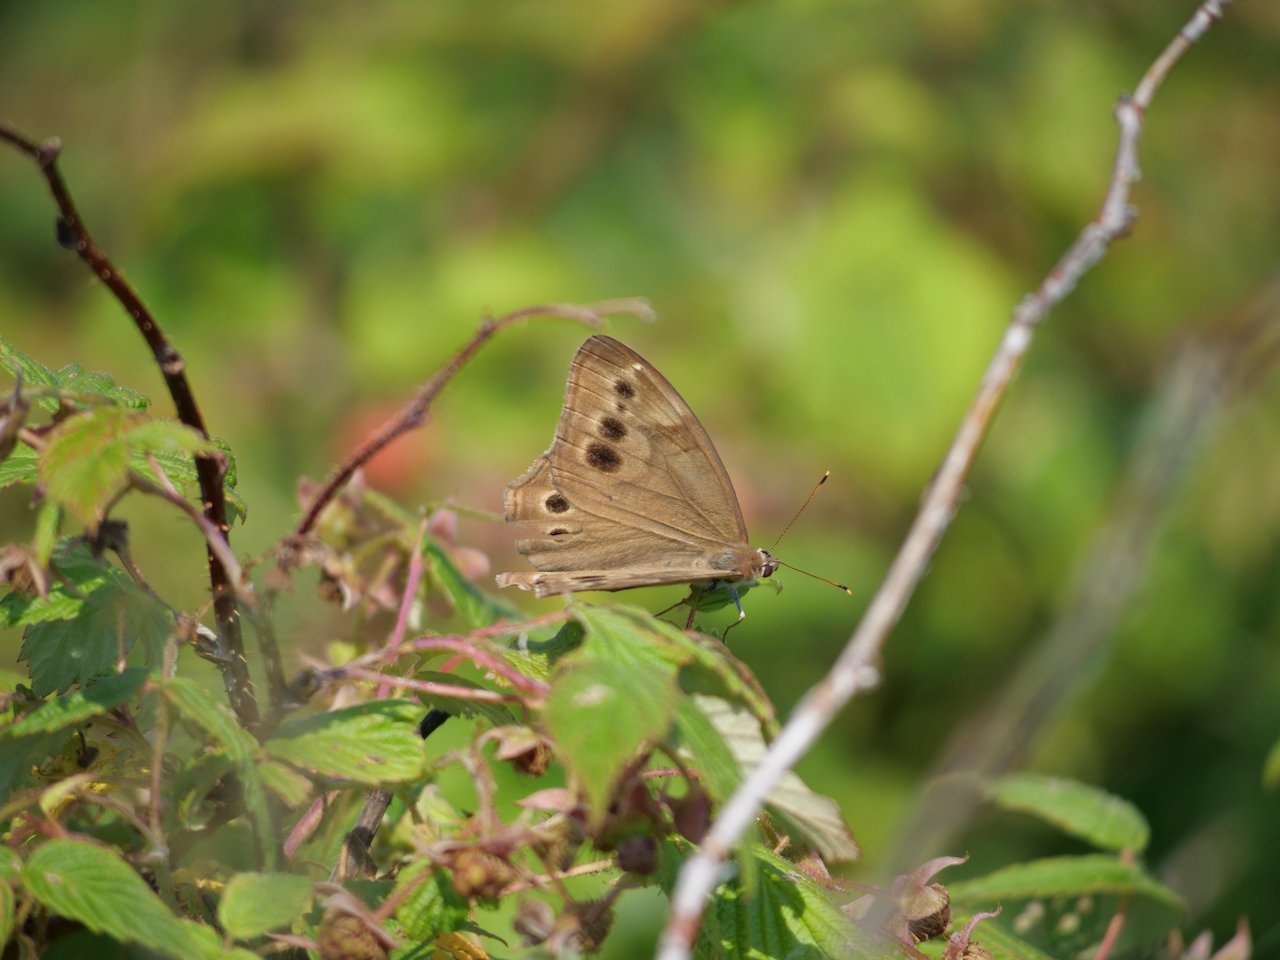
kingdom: Animalia
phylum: Arthropoda
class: Insecta
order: Lepidoptera
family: Nymphalidae
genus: Lethe
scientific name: Lethe anthedon
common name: Northern Pearly-Eye
